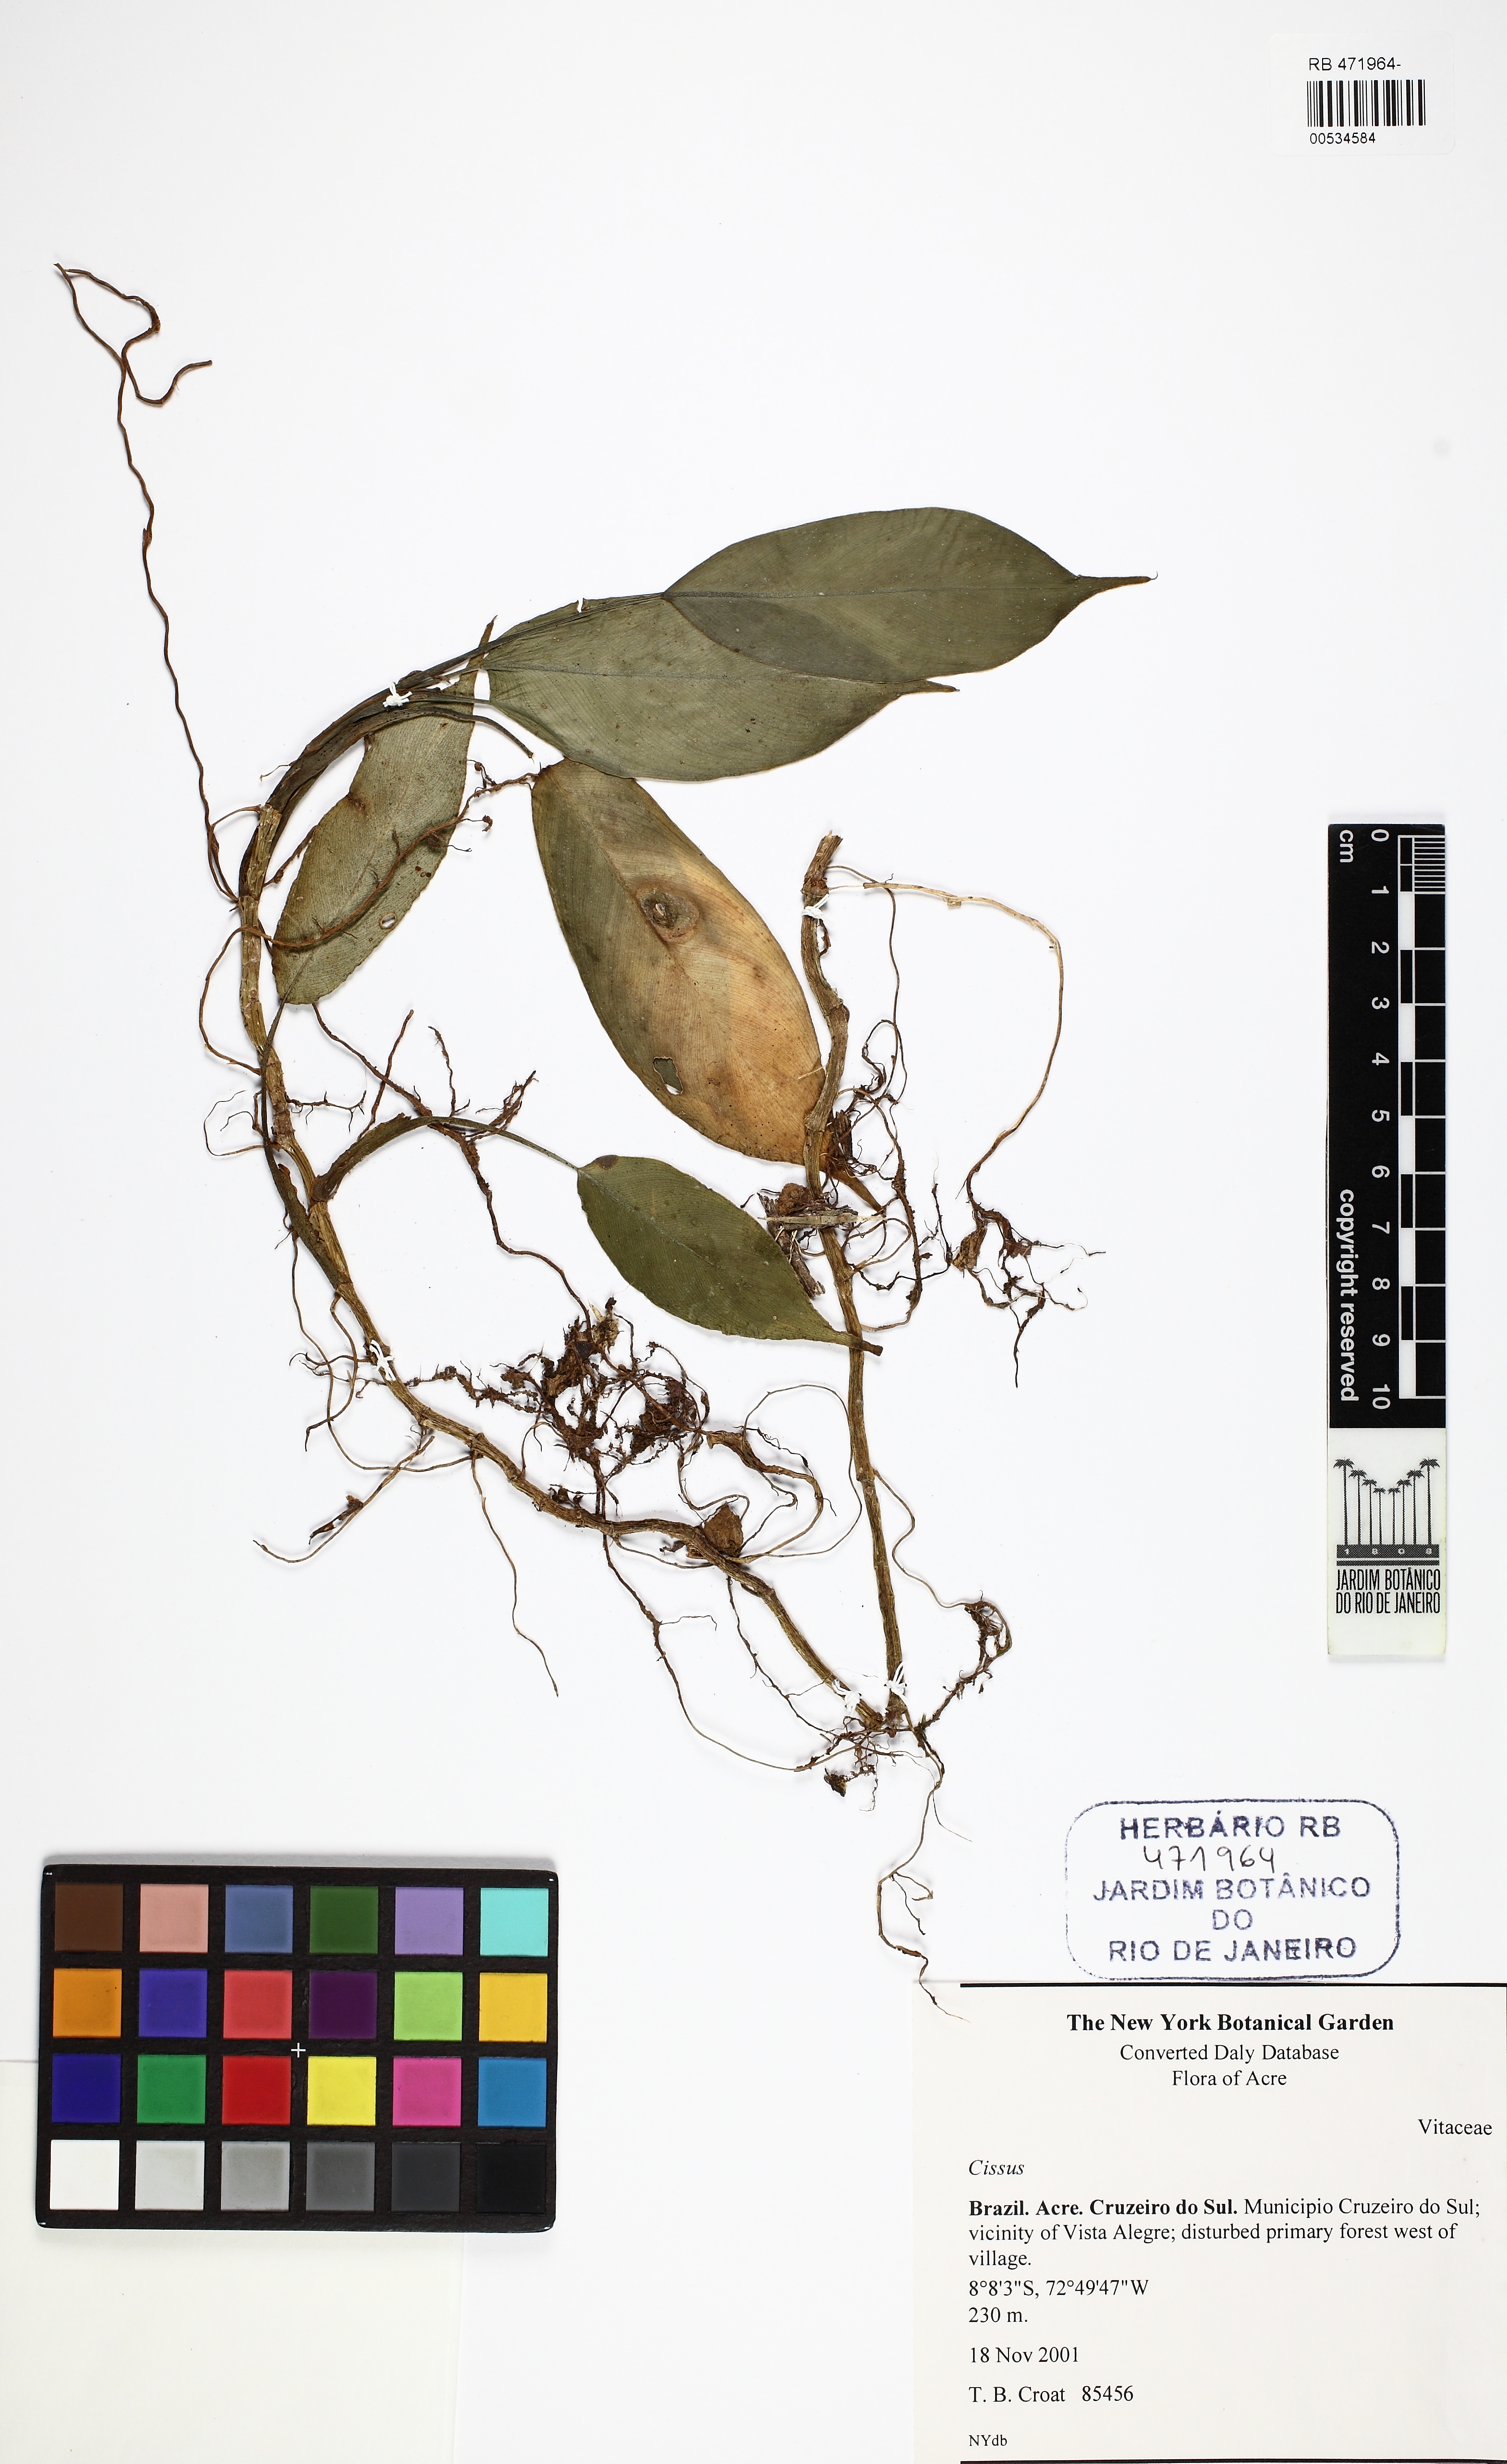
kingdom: Plantae
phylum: Tracheophyta
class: Magnoliopsida
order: Vitales
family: Vitaceae
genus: Cissus
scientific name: Cissus
